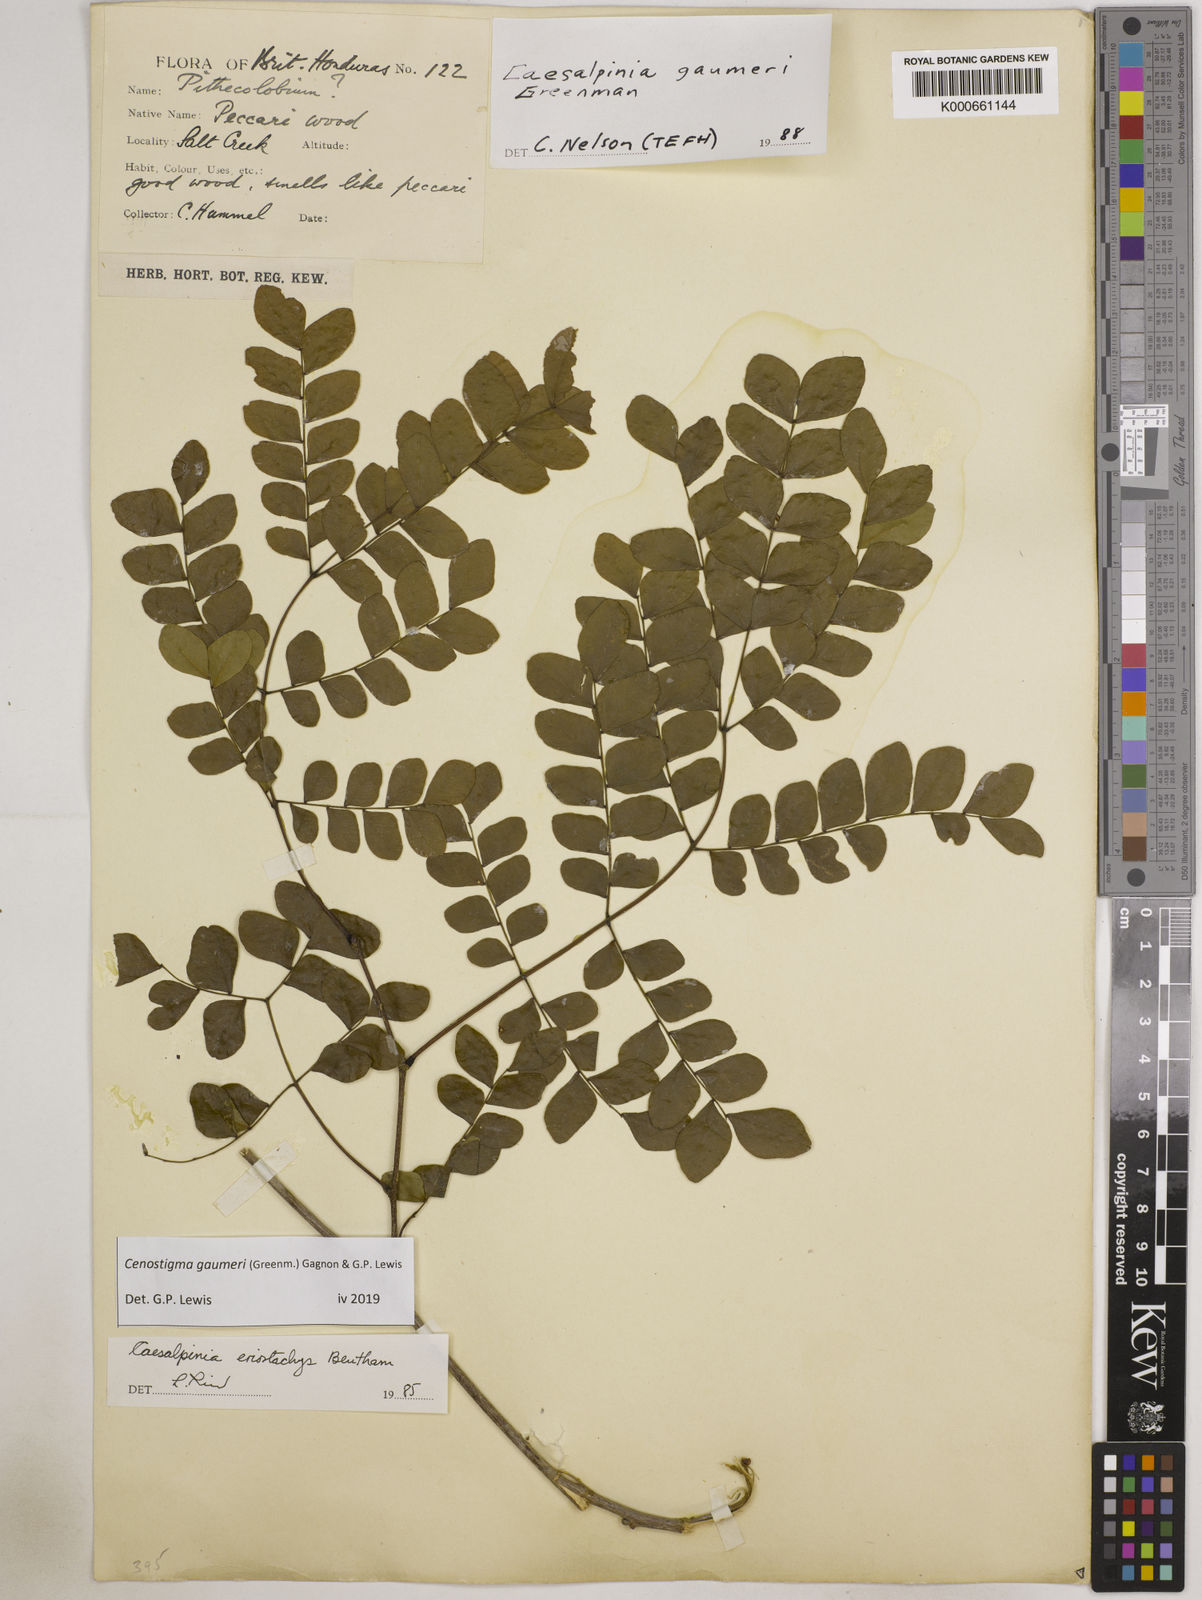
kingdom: Plantae
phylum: Tracheophyta
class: Magnoliopsida
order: Fabales
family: Fabaceae
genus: Cenostigma
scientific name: Cenostigma gaumeri
